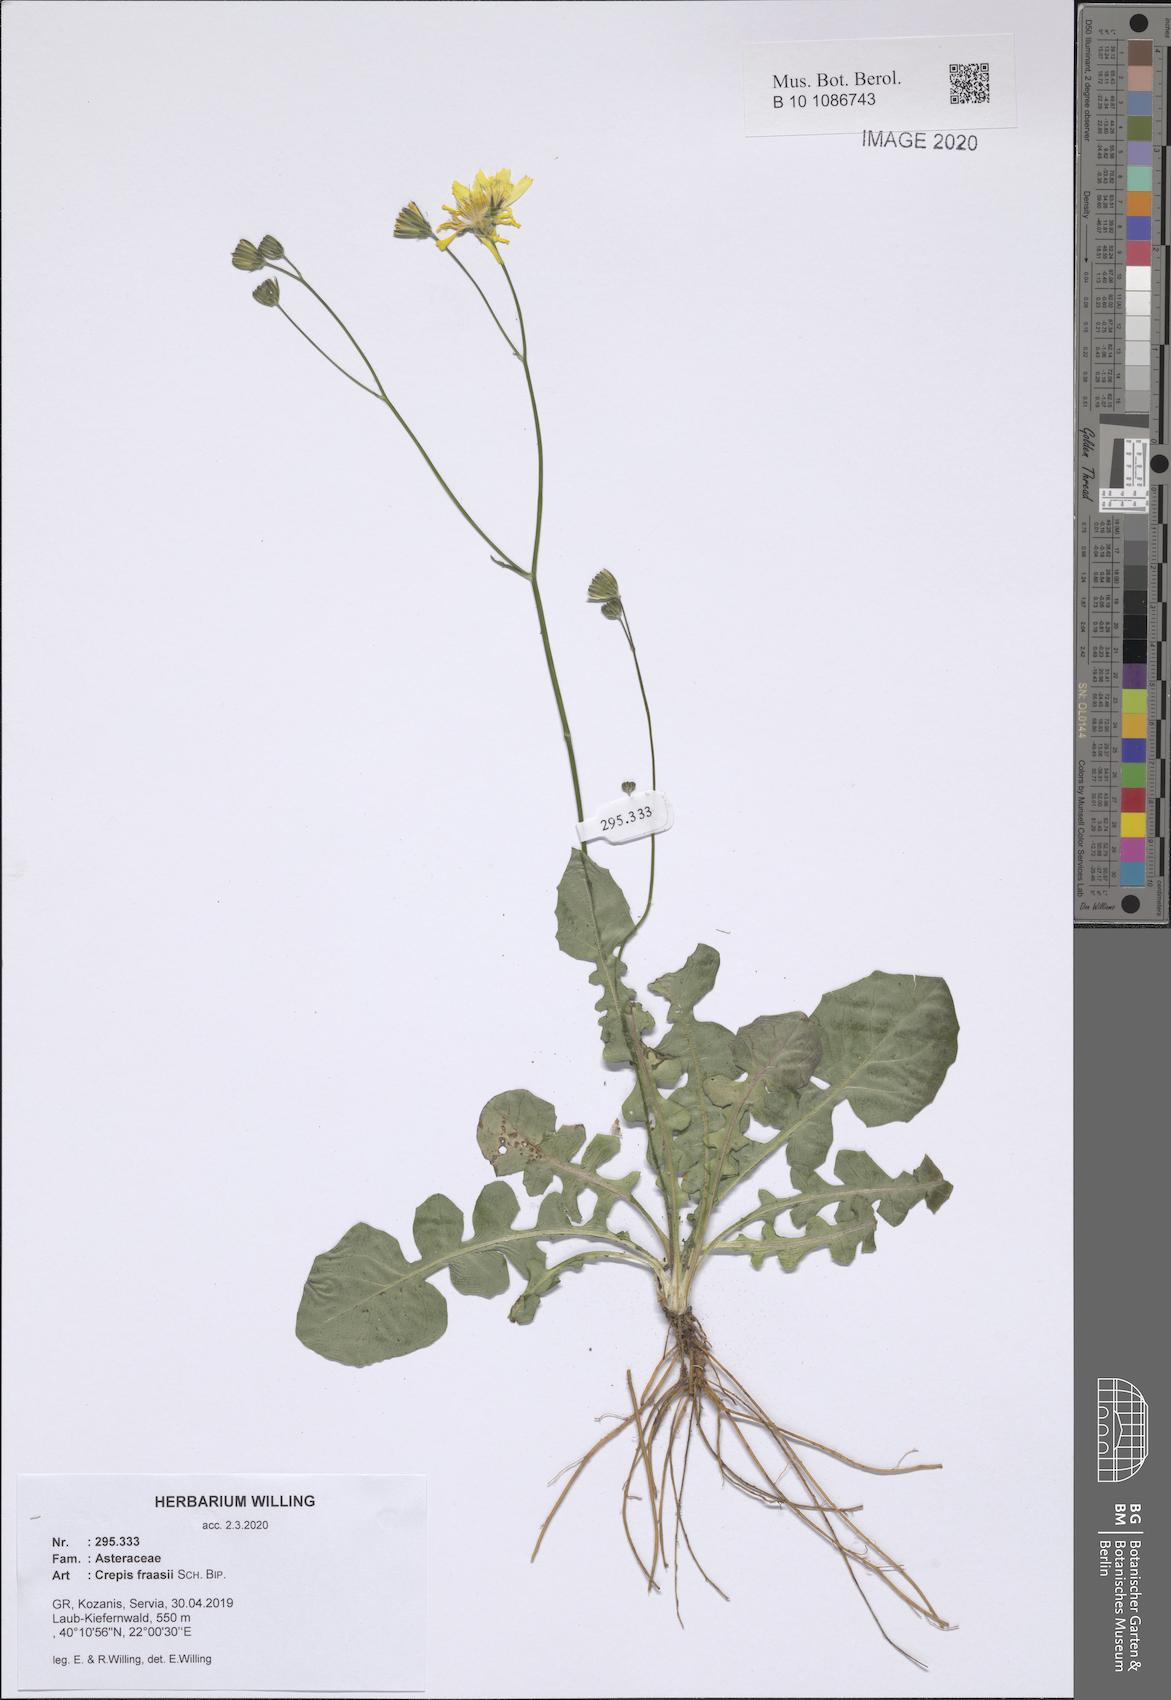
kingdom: Plantae
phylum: Tracheophyta
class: Magnoliopsida
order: Asterales
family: Asteraceae
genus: Crepis
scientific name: Crepis fraasii
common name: Hawk's-beard
